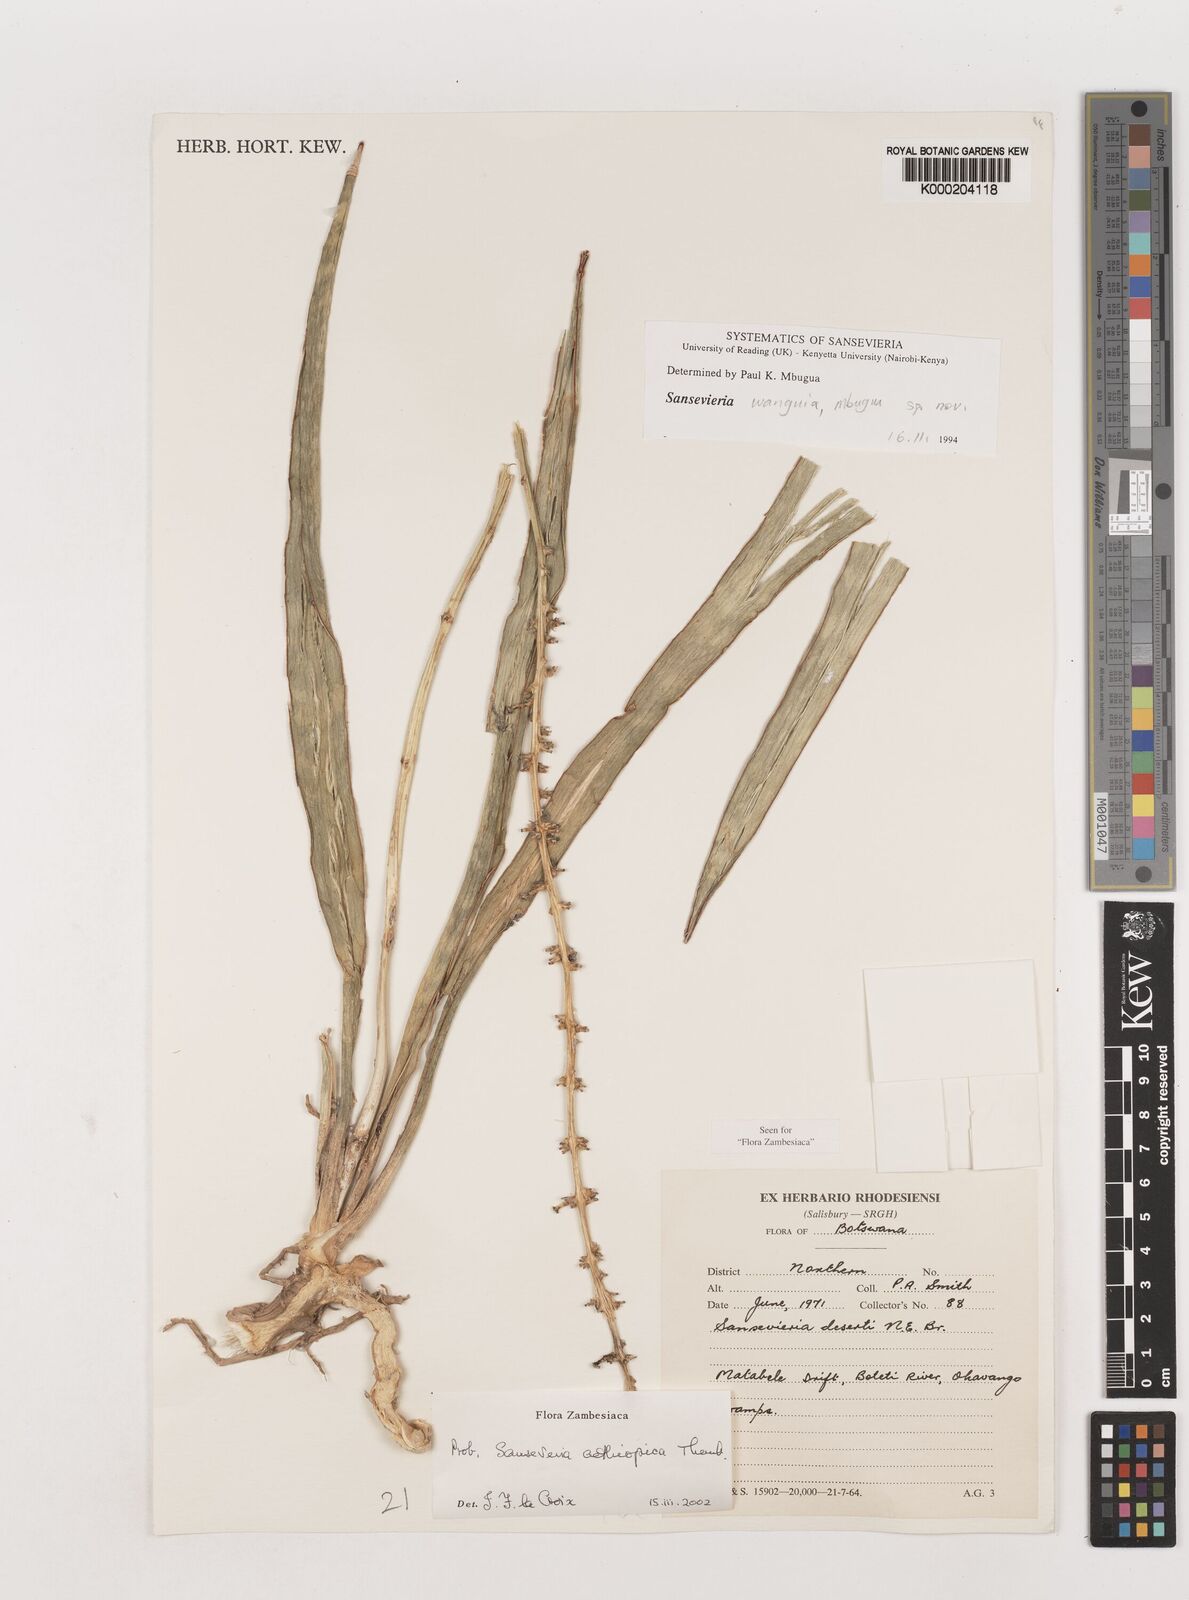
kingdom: Plantae
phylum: Tracheophyta
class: Liliopsida
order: Asparagales
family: Asparagaceae
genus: Dracaena
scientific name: Dracaena aethiopica
